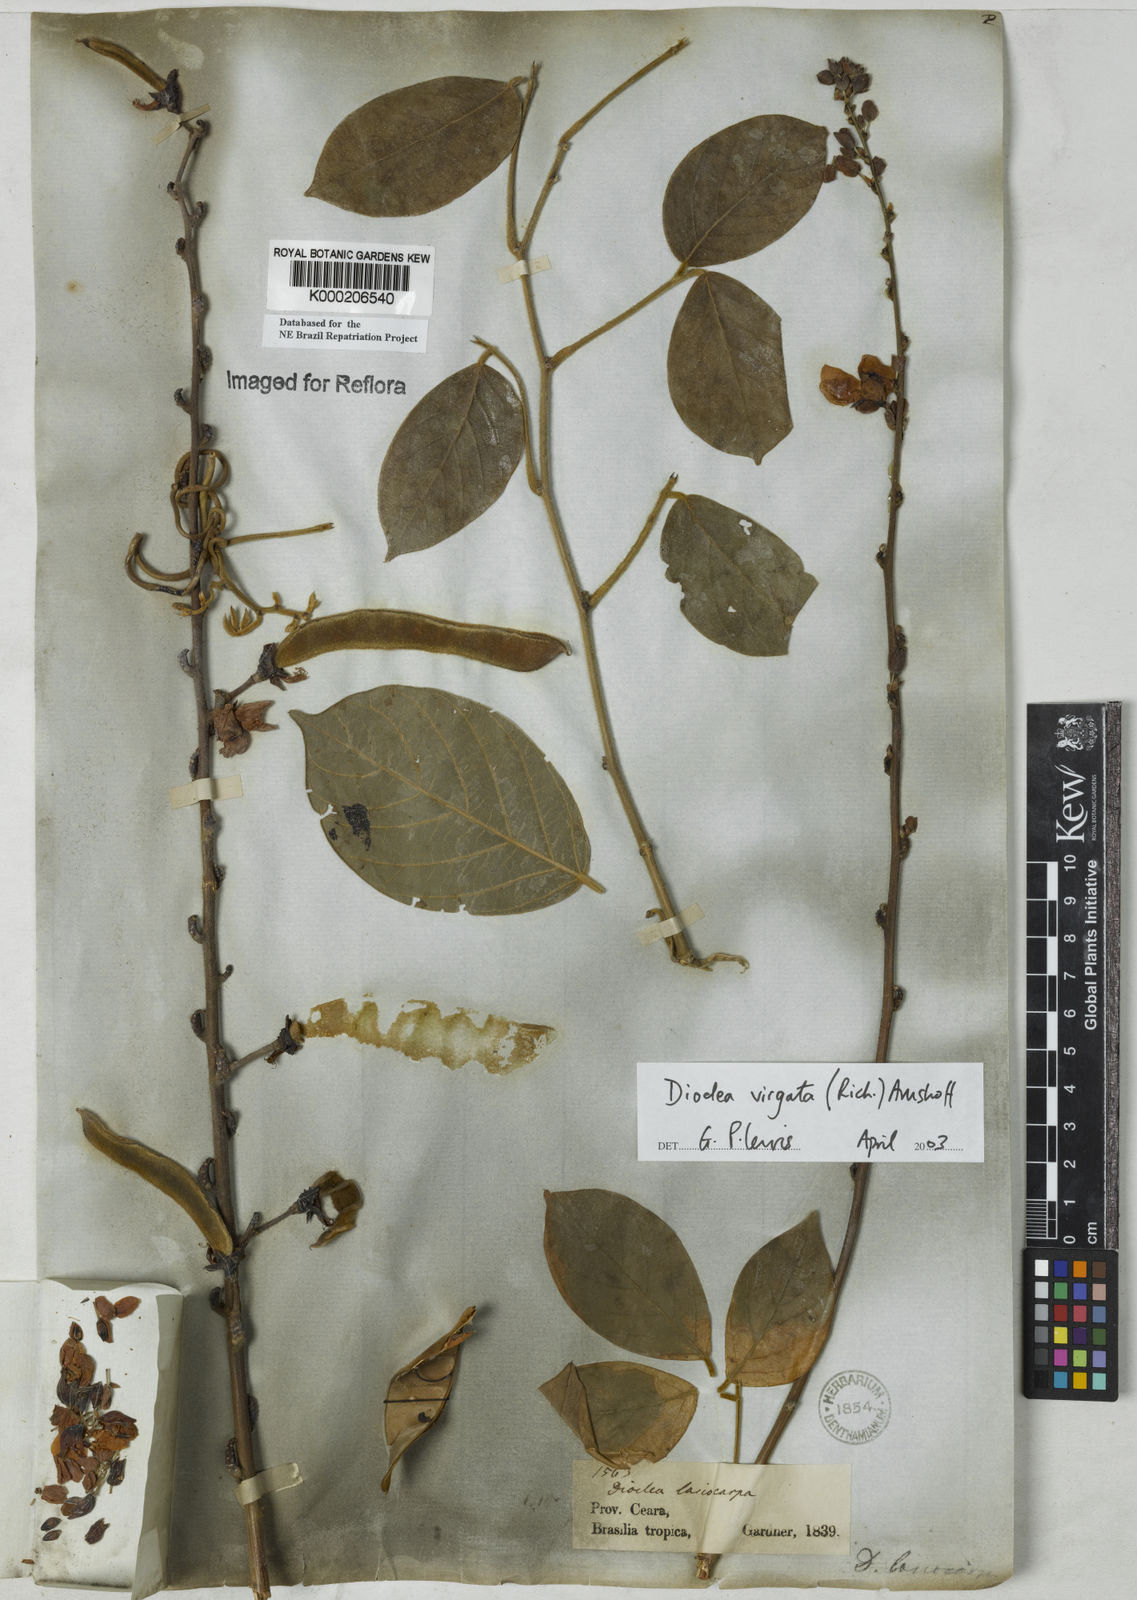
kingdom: Plantae
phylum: Tracheophyta
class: Magnoliopsida
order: Fabales
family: Fabaceae
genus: Dioclea
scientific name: Dioclea virgata
